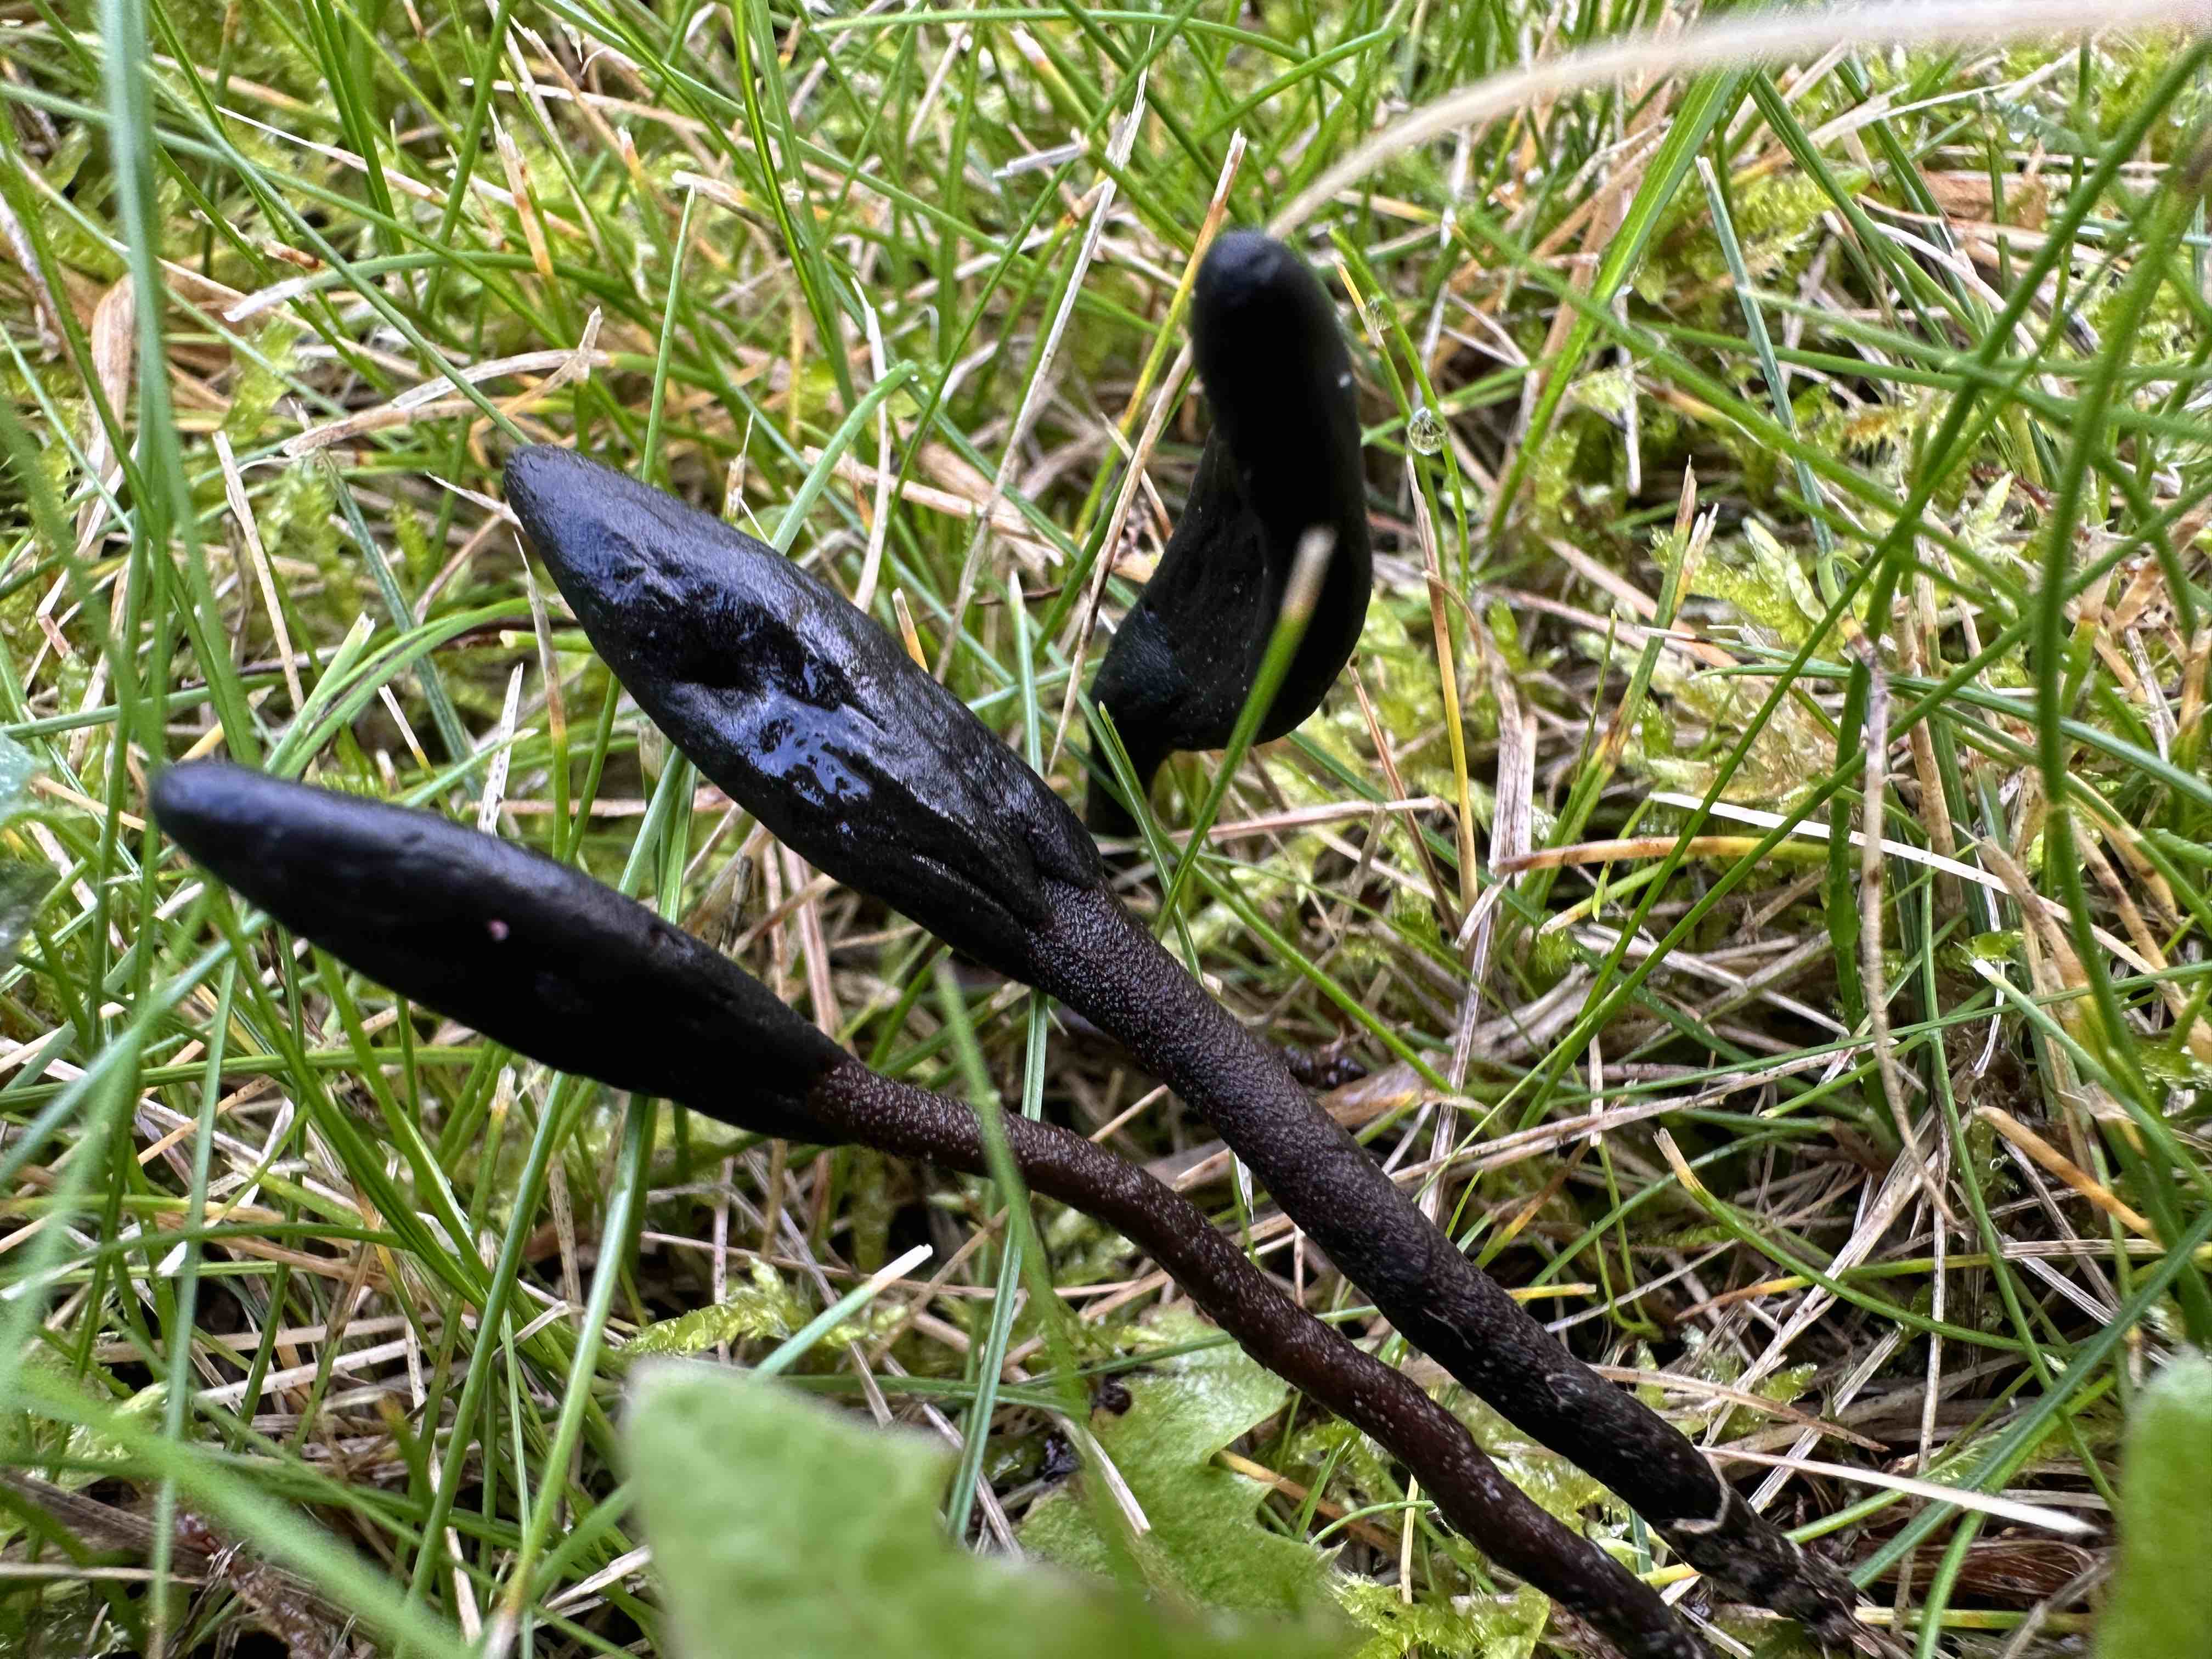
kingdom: Fungi
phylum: Ascomycota
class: Geoglossomycetes
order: Geoglossales
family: Geoglossaceae
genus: Geoglossum
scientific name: Geoglossum
